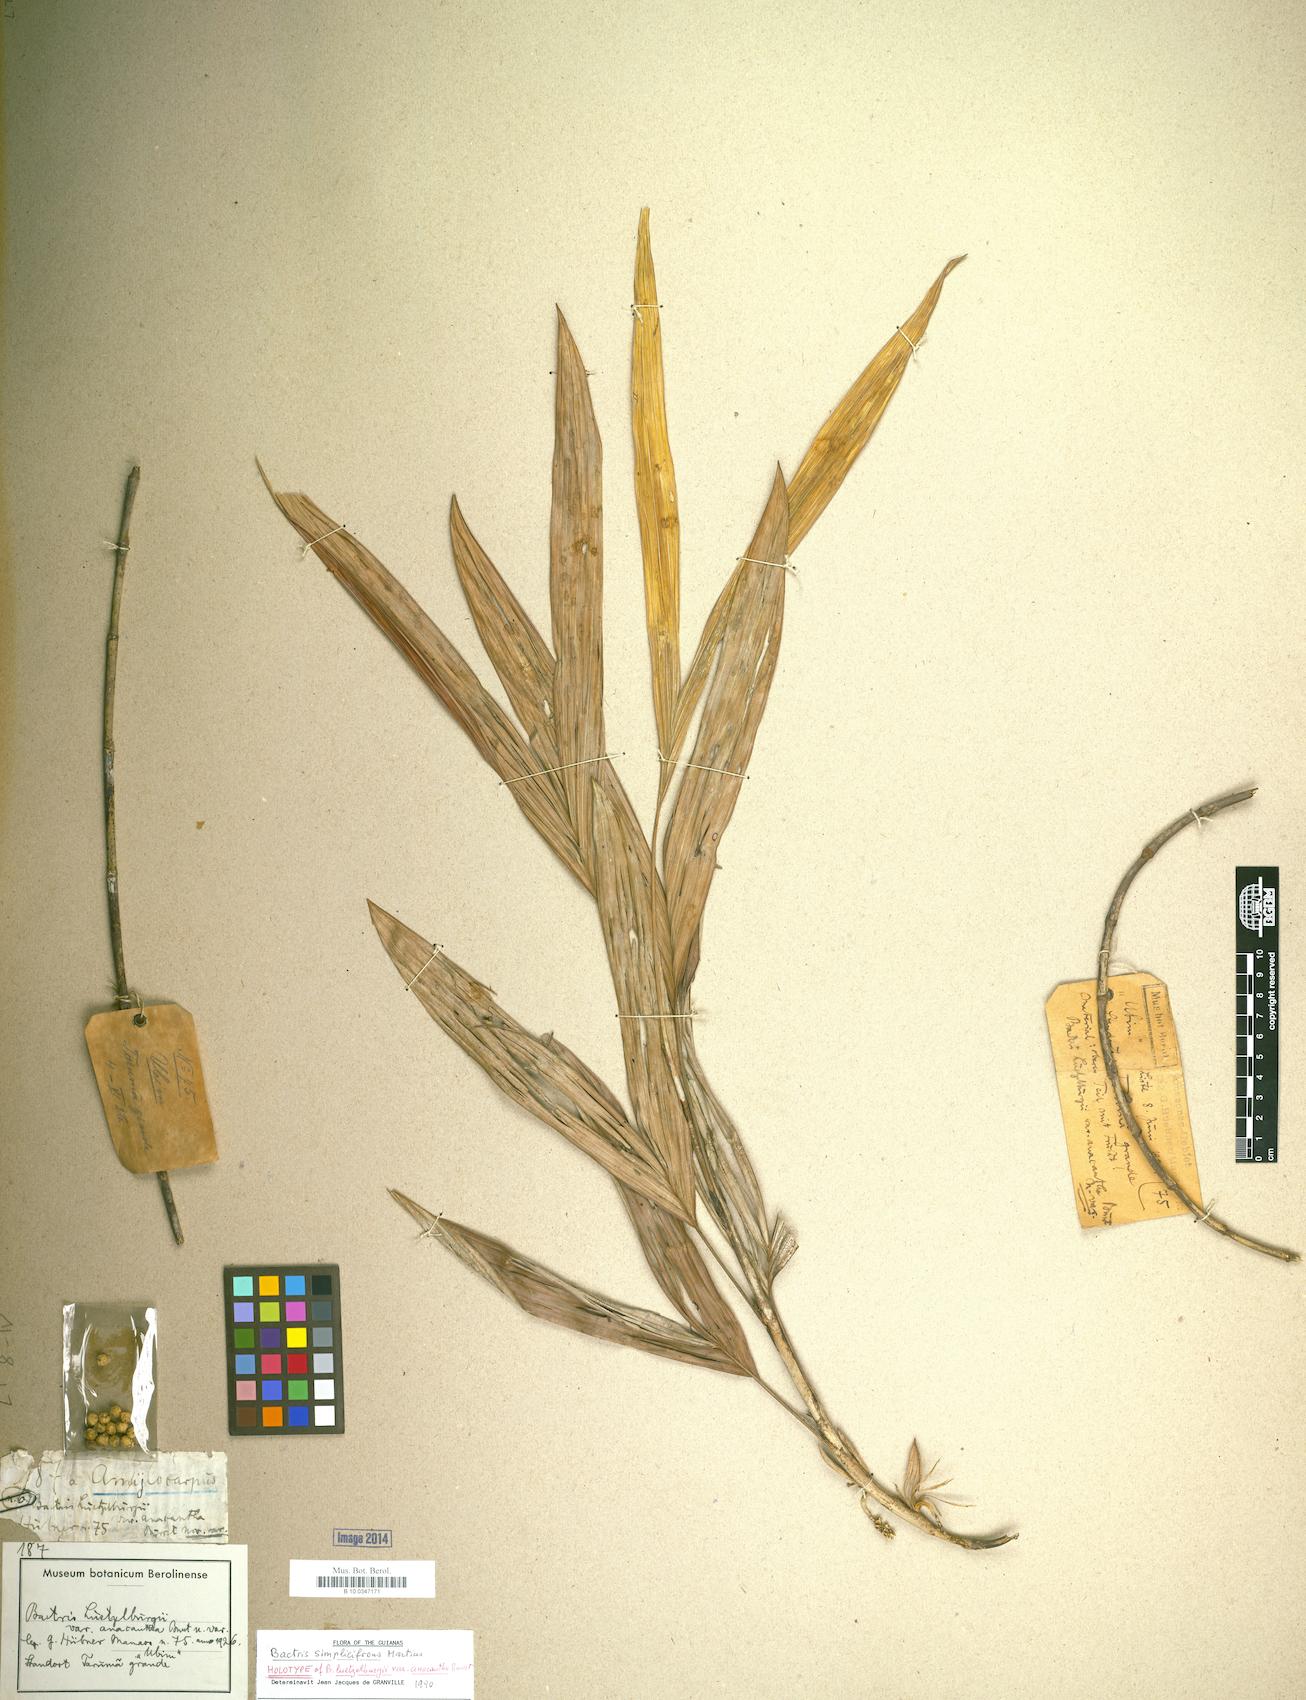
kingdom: Plantae
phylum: Tracheophyta
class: Liliopsida
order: Arecales
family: Arecaceae
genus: Bactris
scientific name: Bactris simplicifrons
